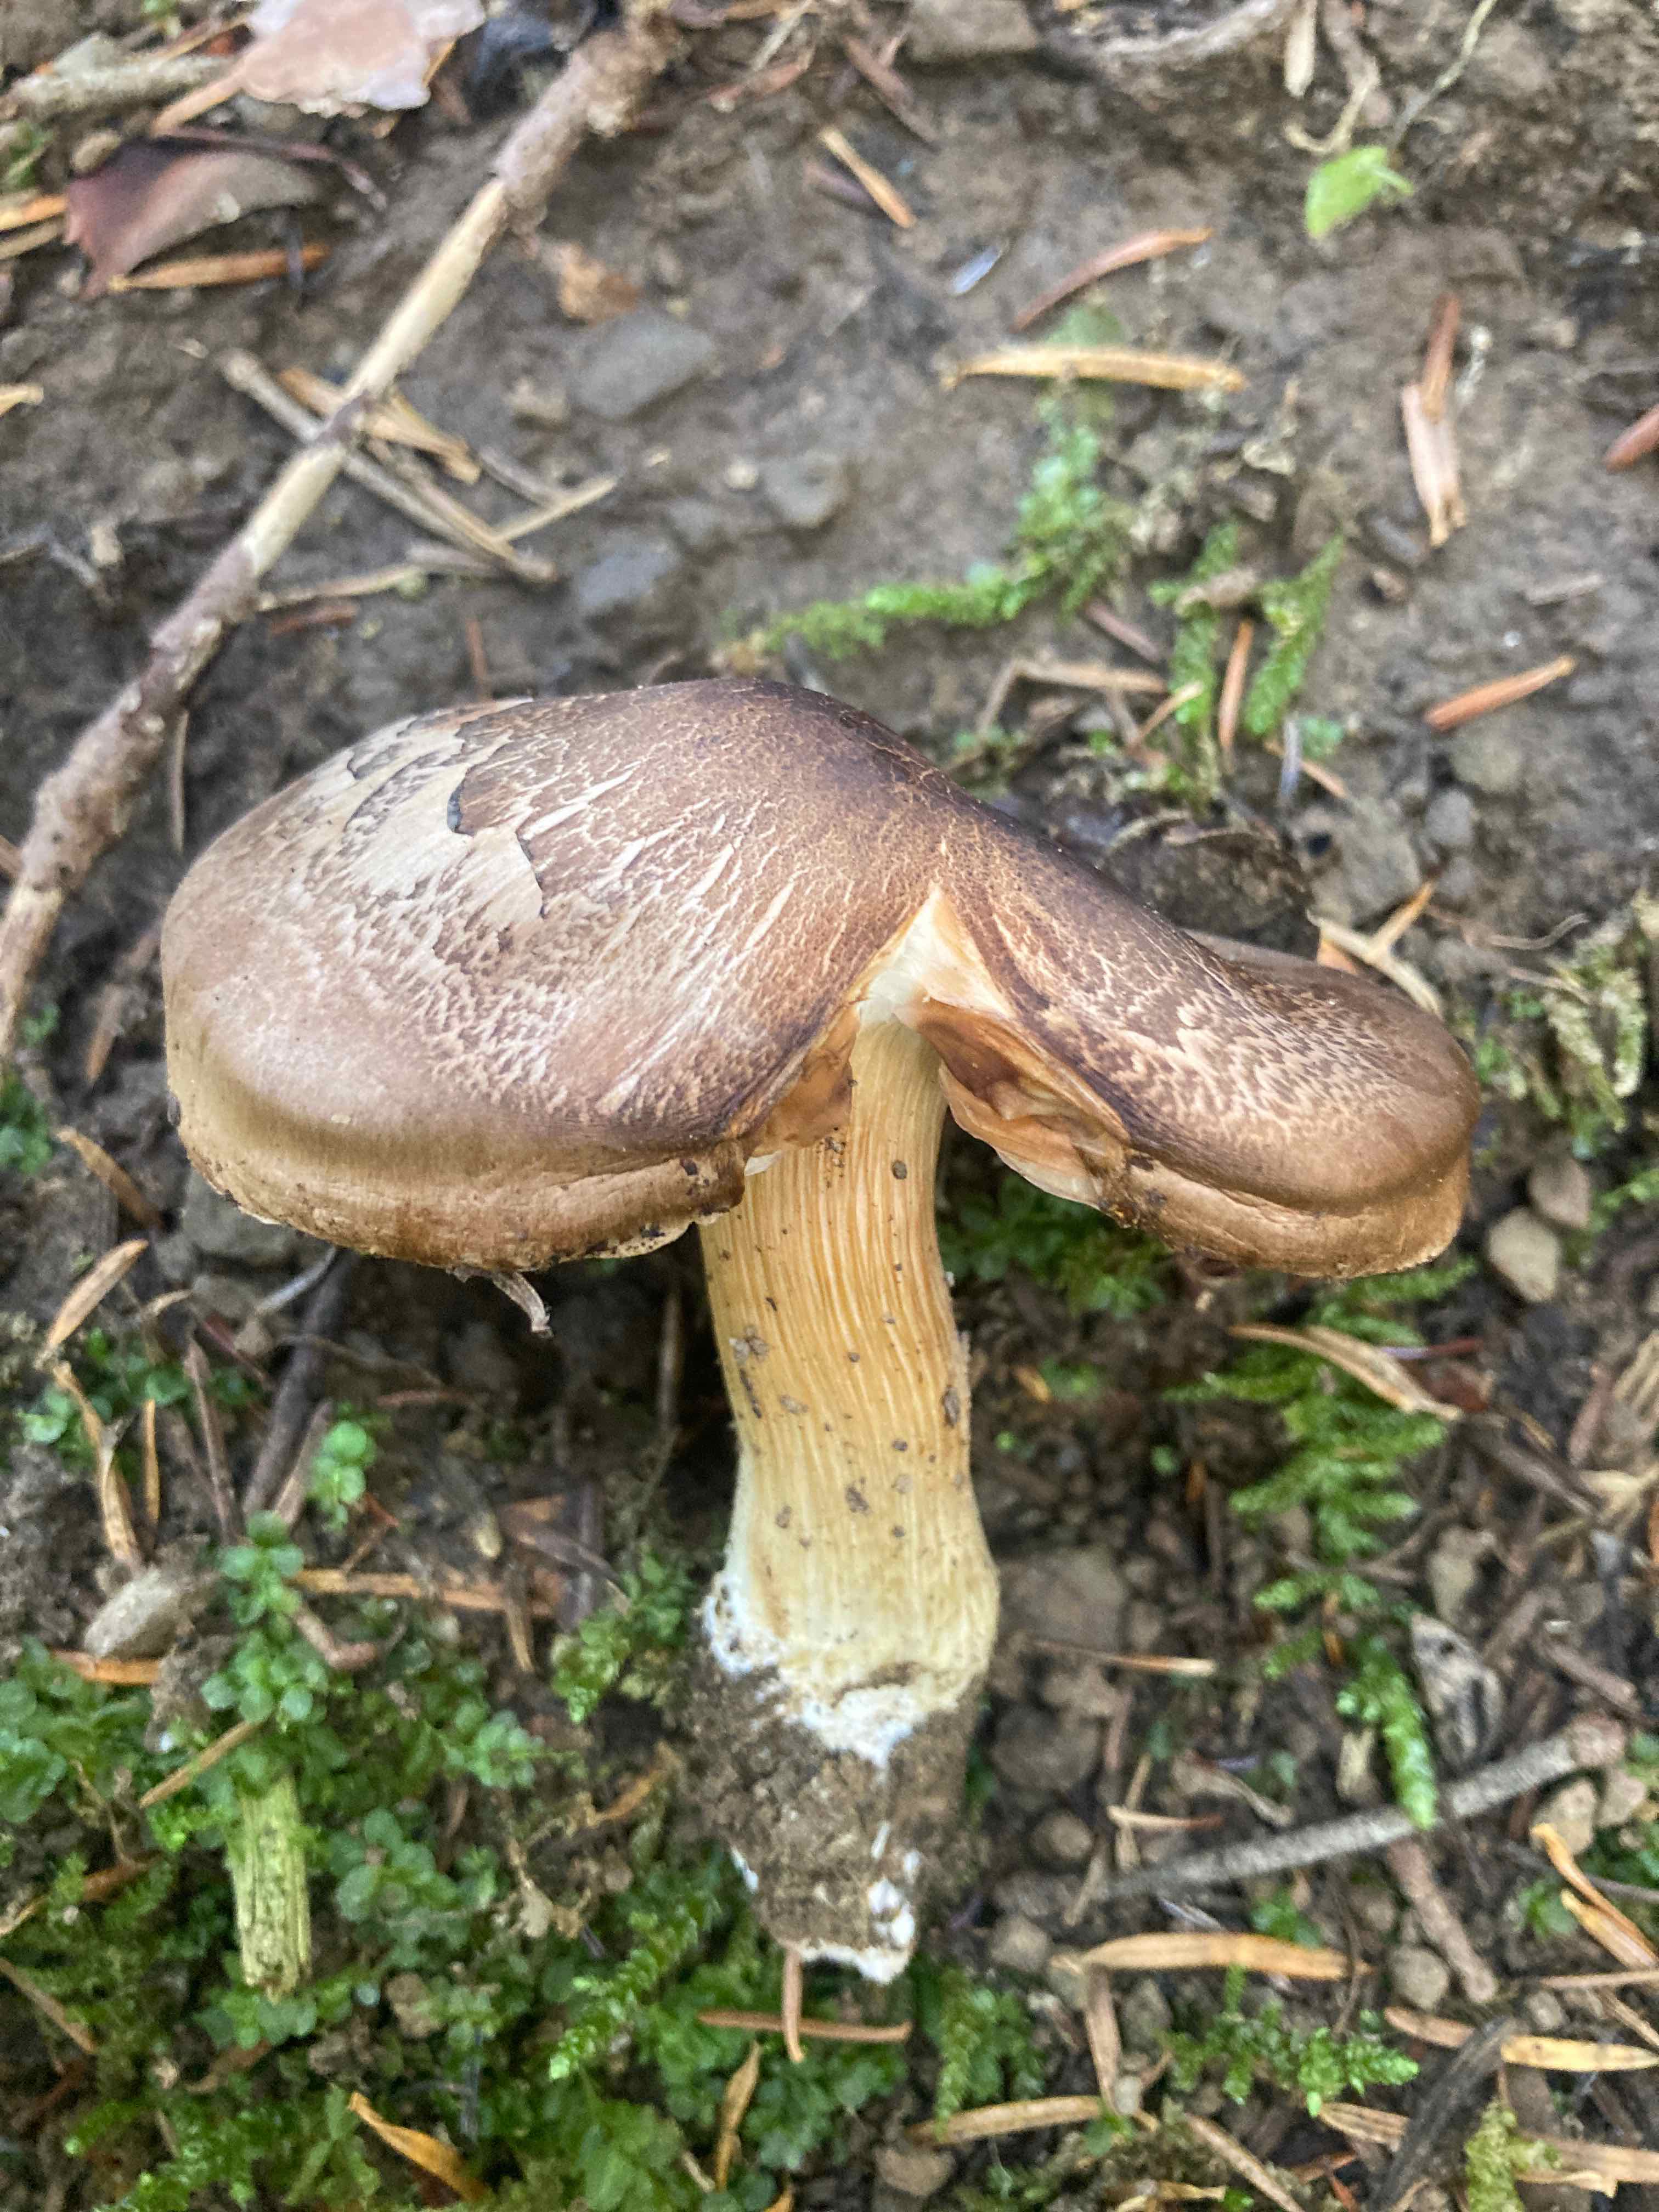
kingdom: Fungi
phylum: Basidiomycota
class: Agaricomycetes
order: Agaricales
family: Tricholomataceae
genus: Tricholoma
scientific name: Tricholoma saponaceum
